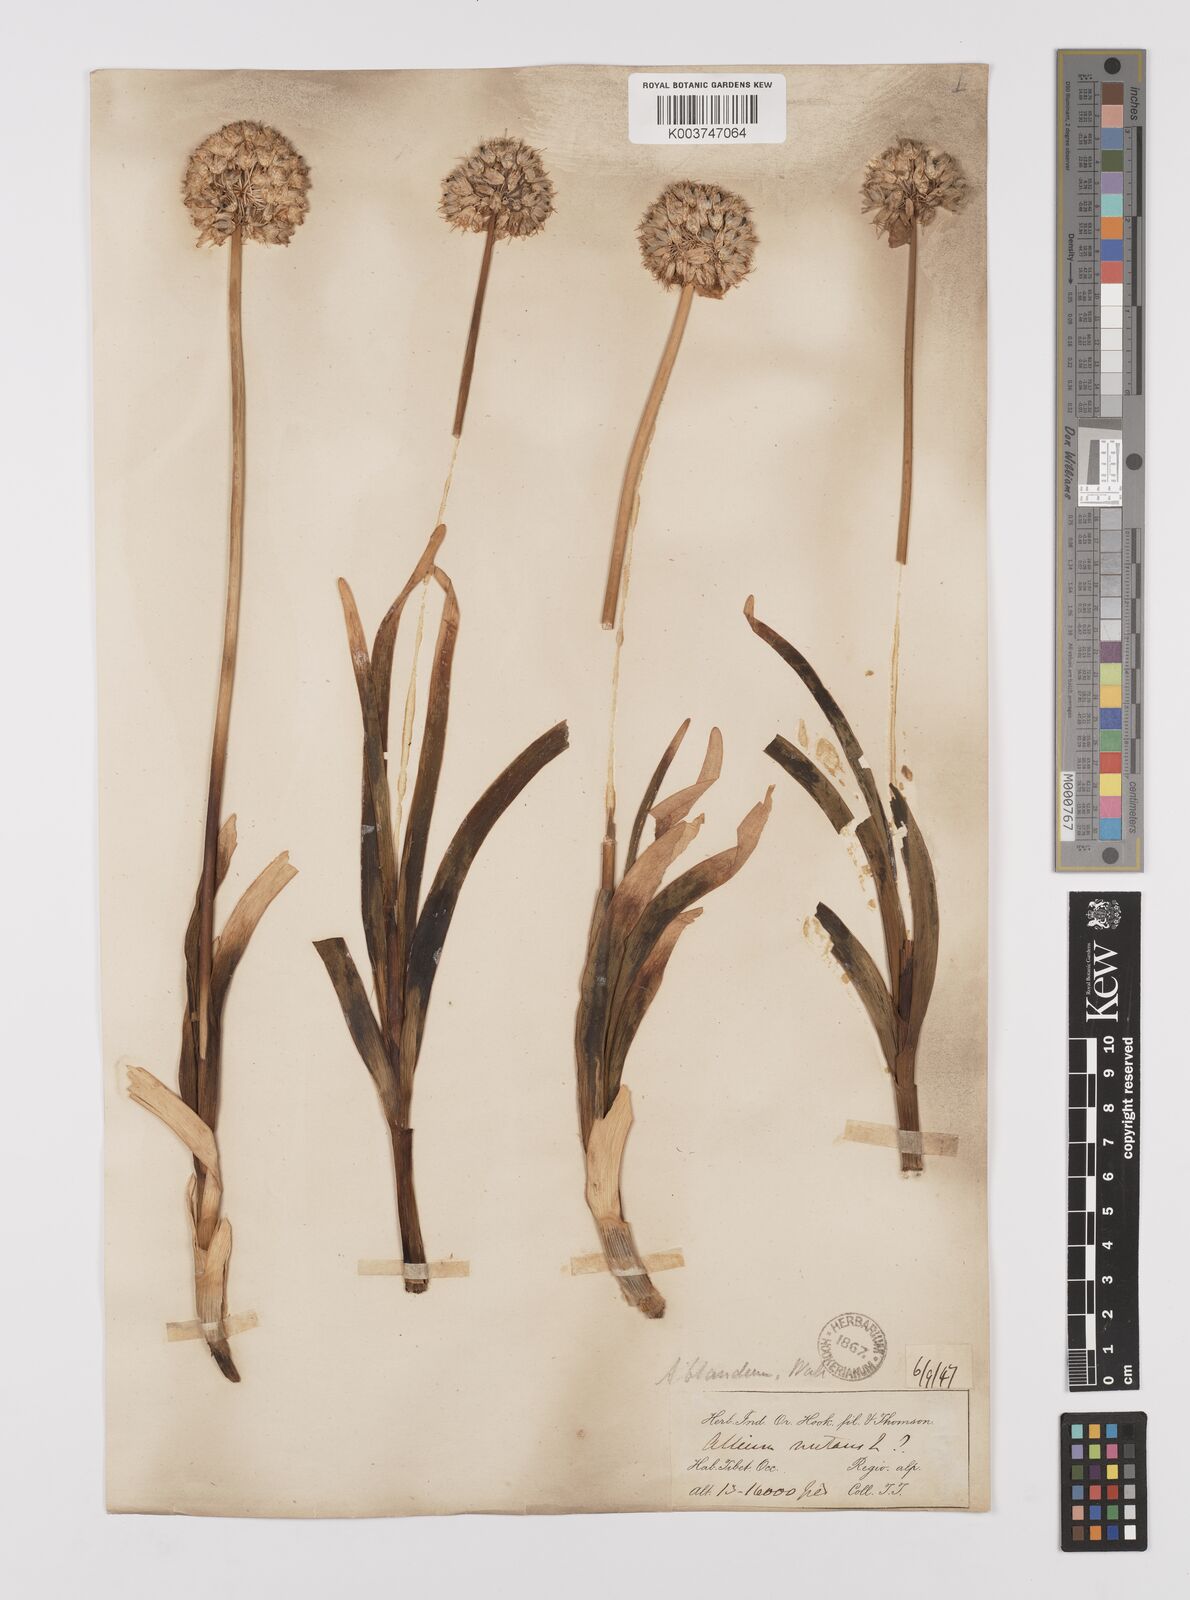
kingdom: Plantae
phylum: Tracheophyta
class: Liliopsida
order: Asparagales
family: Amaryllidaceae
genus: Allium
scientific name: Allium blandum
